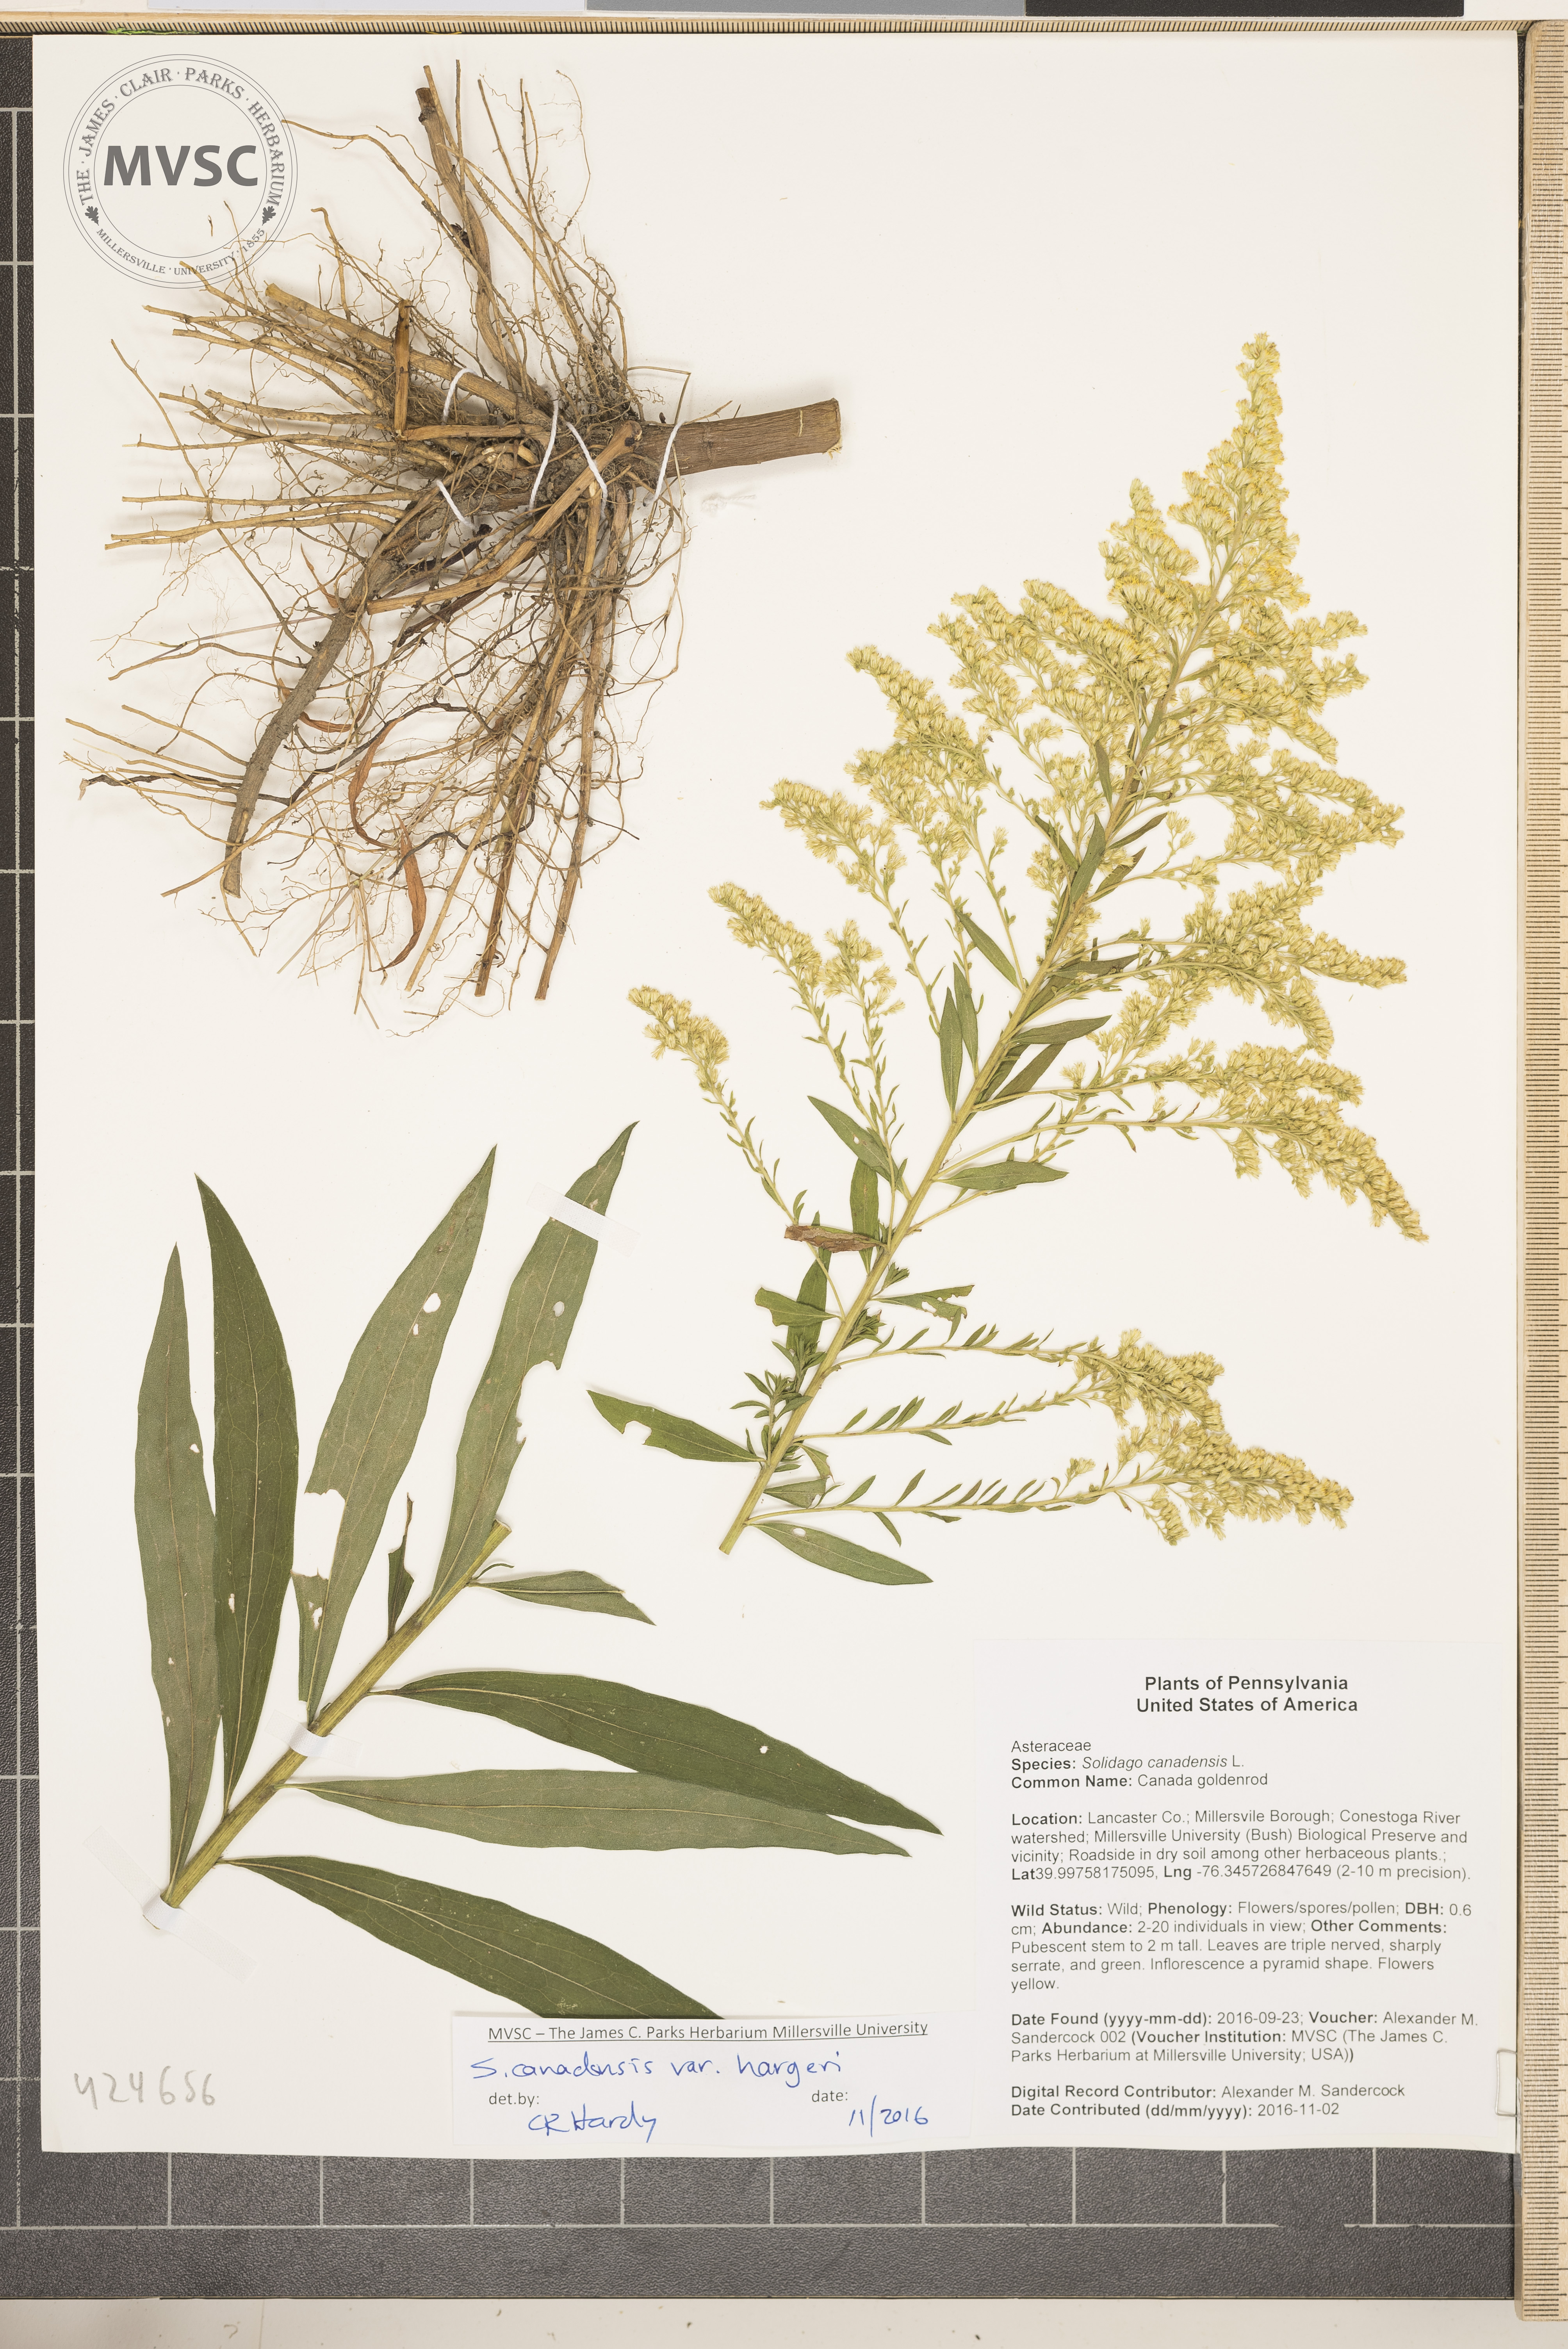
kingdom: Plantae
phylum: Tracheophyta
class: Magnoliopsida
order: Asterales
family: Asteraceae
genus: Solidago
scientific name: Solidago altissima
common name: Late goldenrod
